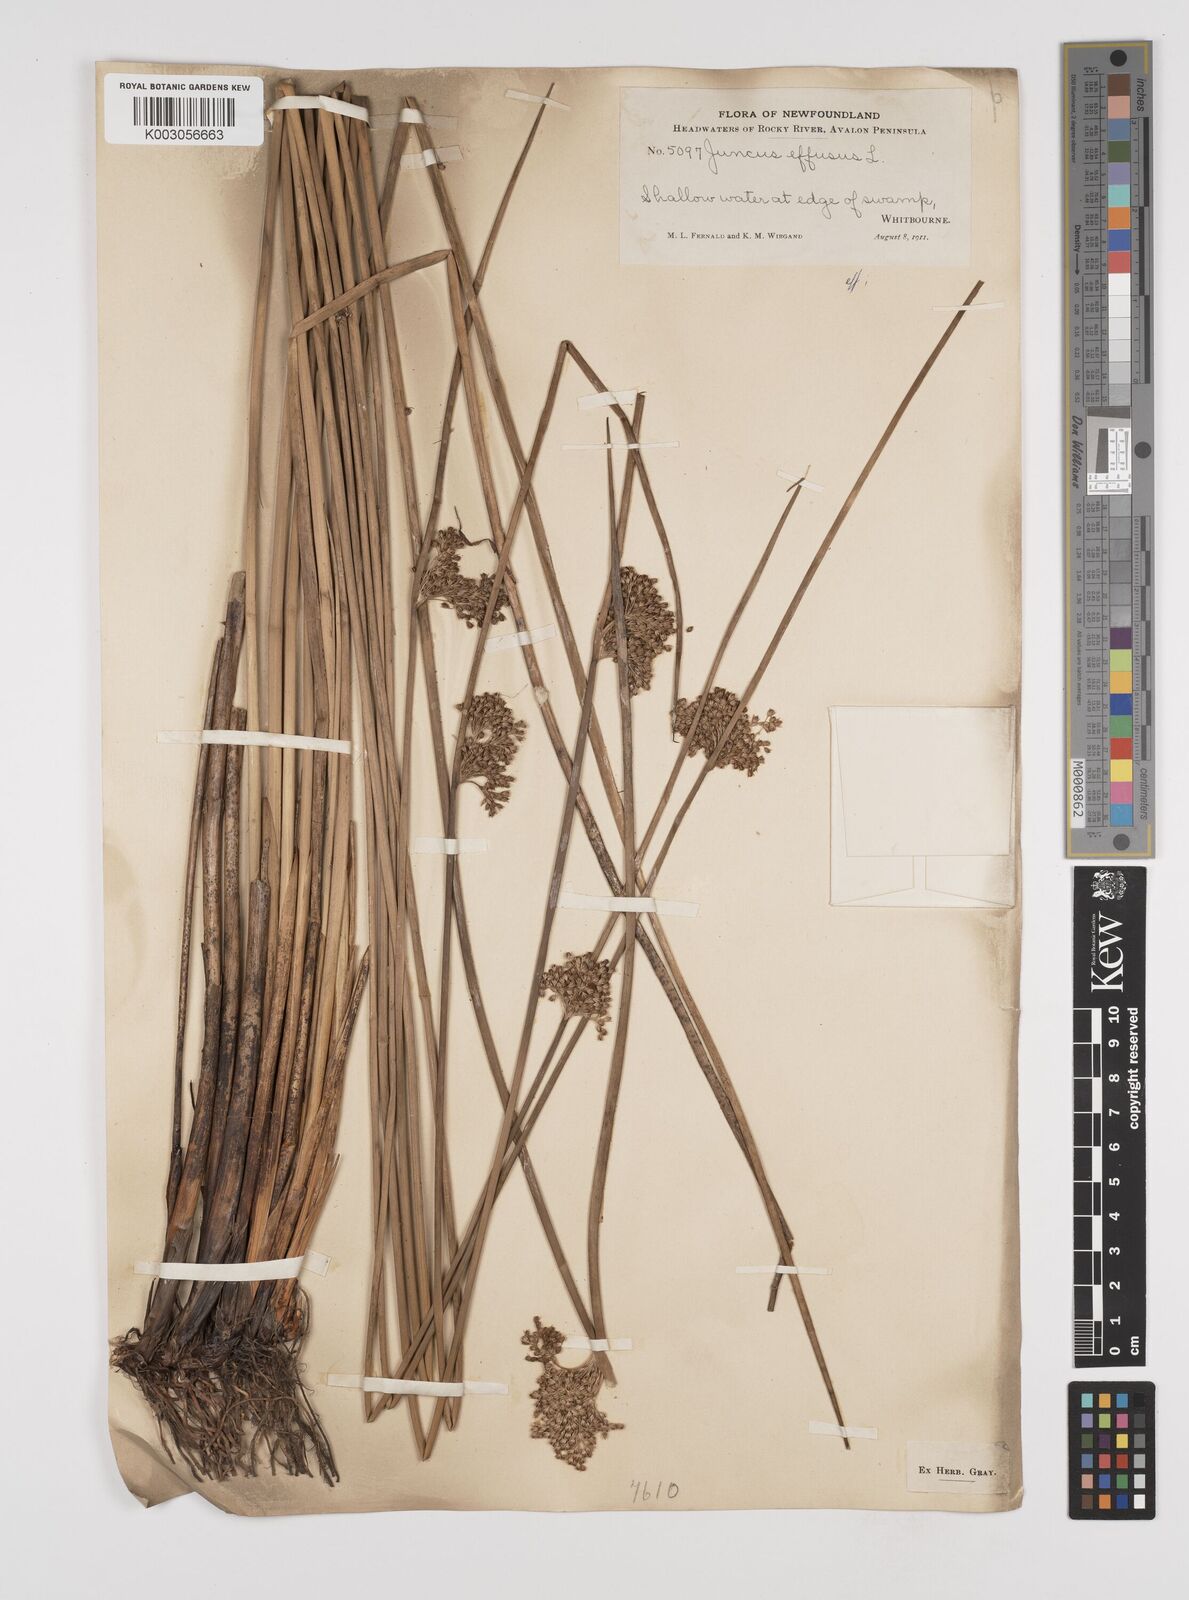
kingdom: Plantae
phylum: Tracheophyta
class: Liliopsida
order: Poales
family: Juncaceae
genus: Juncus
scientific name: Juncus effusus
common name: Soft rush
